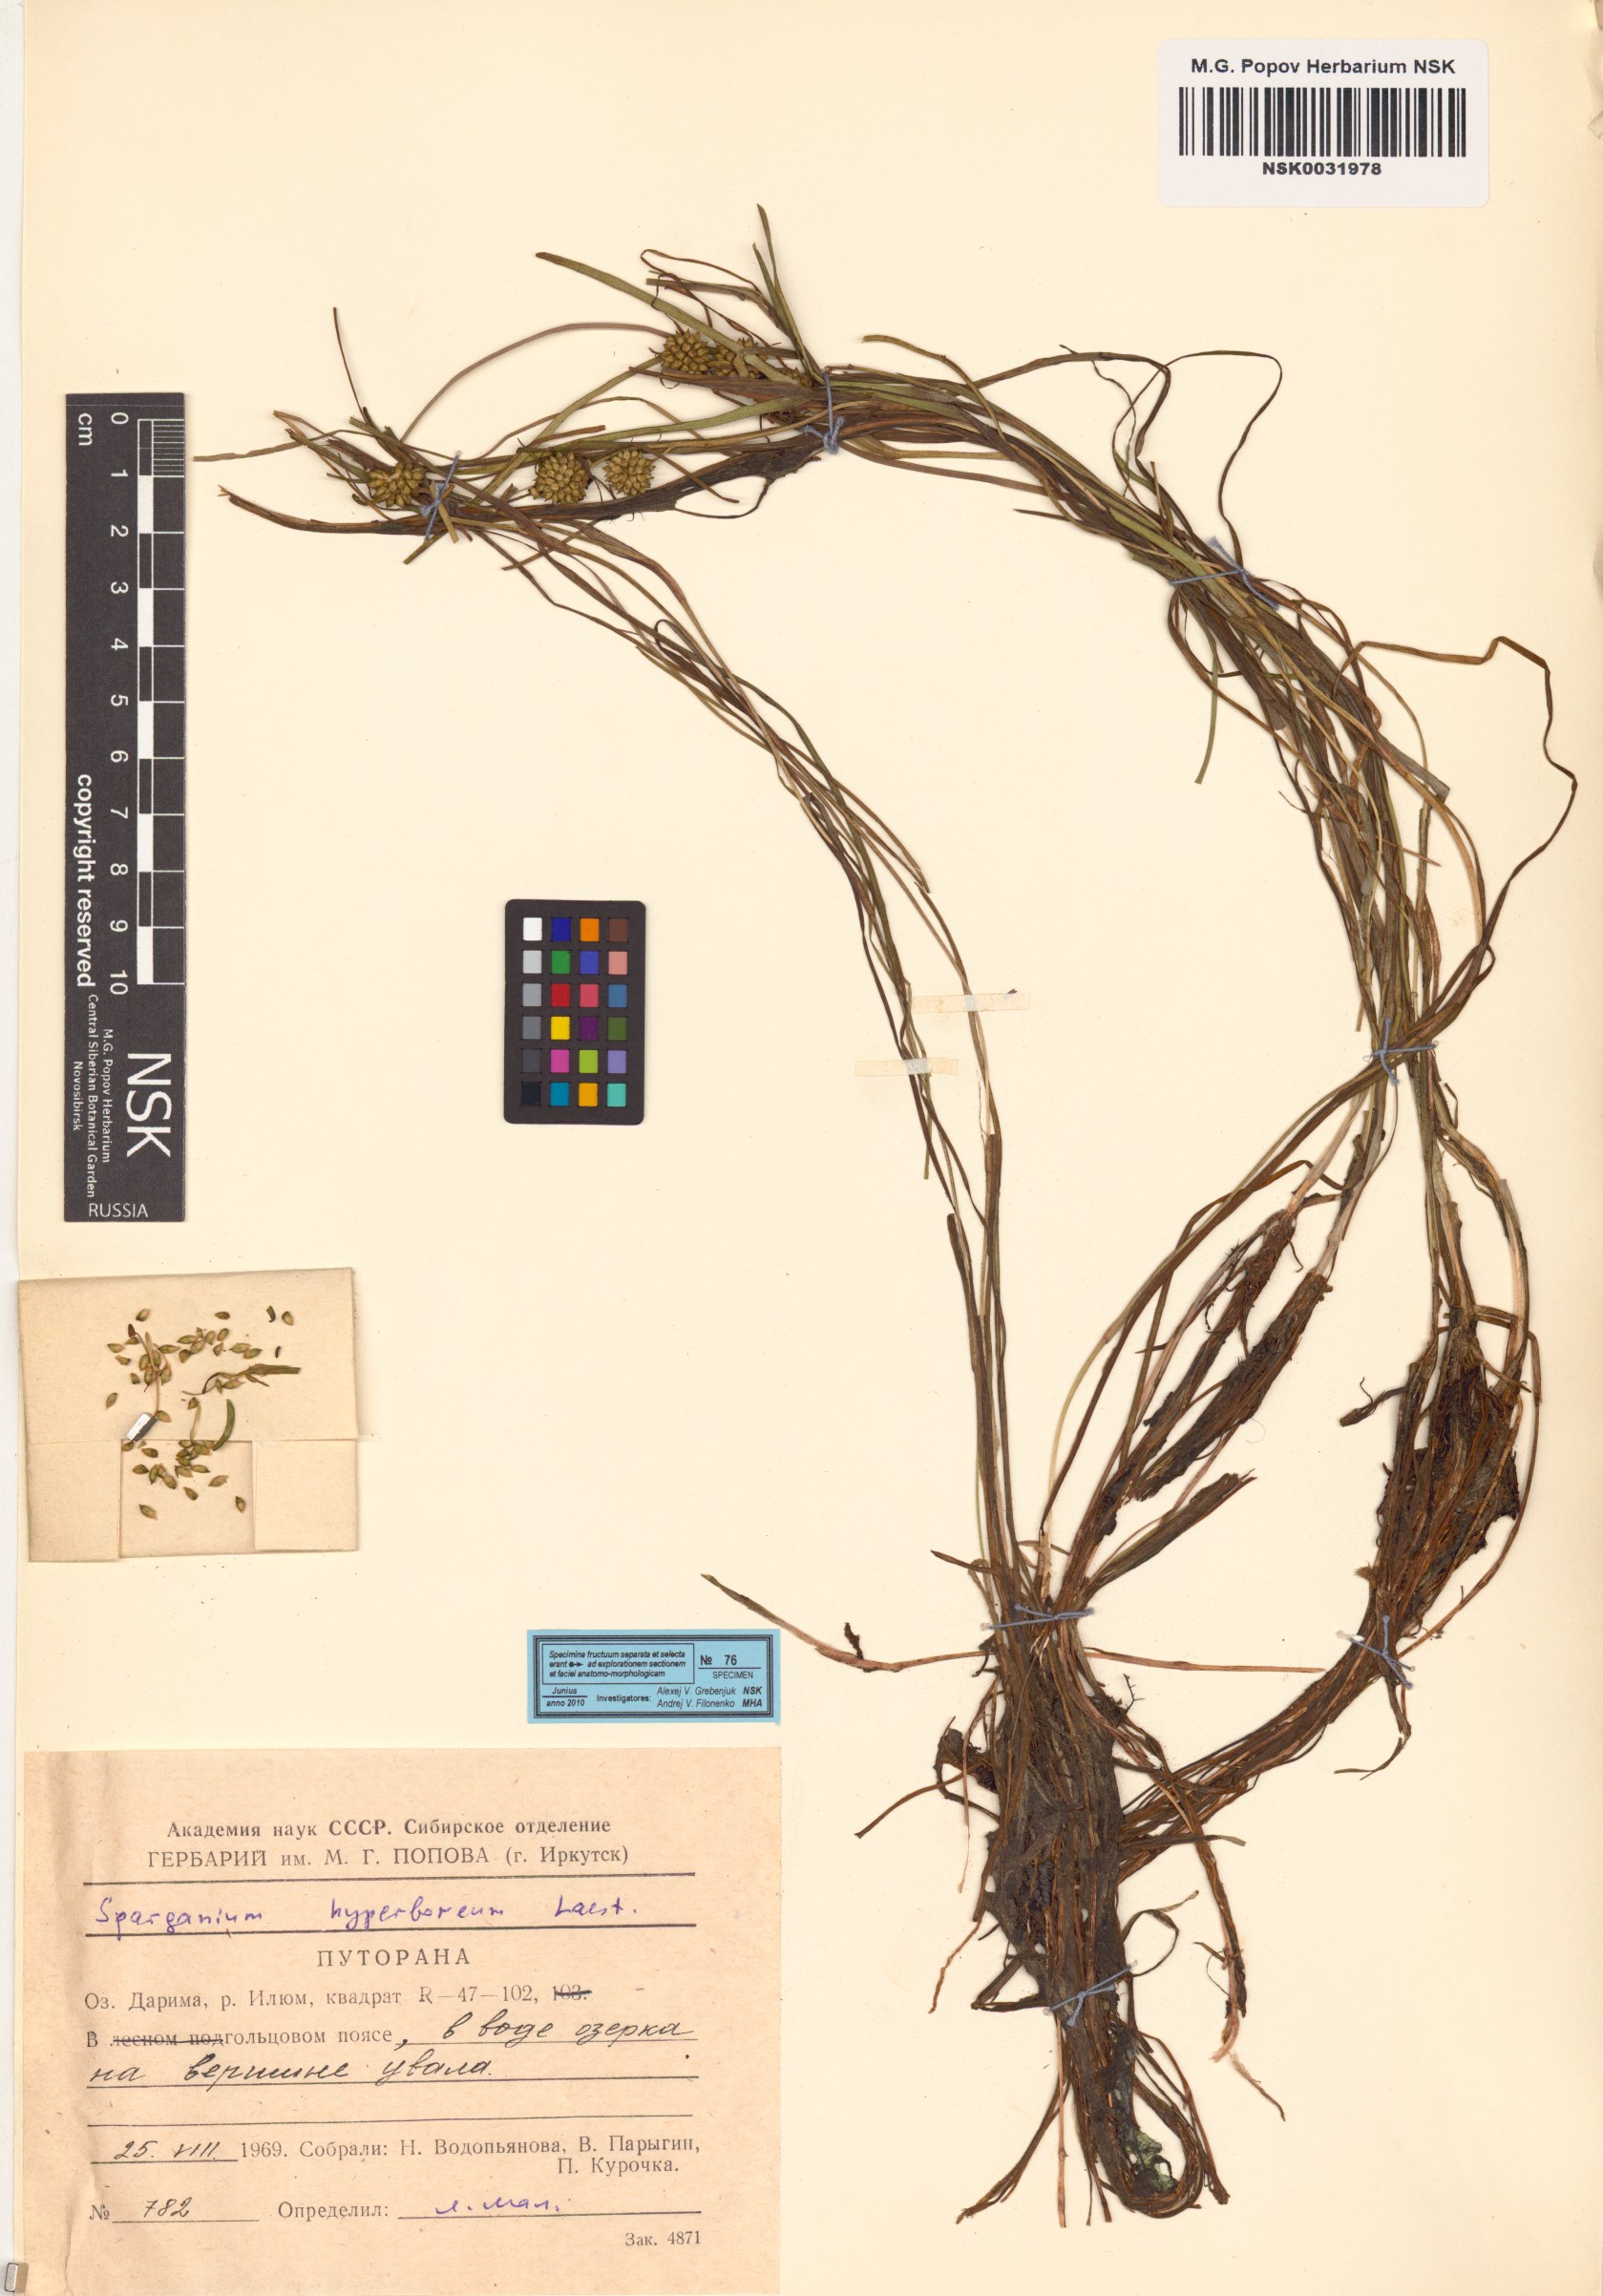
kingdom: Plantae
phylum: Tracheophyta
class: Liliopsida
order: Poales
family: Typhaceae
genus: Sparganium
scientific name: Sparganium hyperboreum
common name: Arctic burreed
